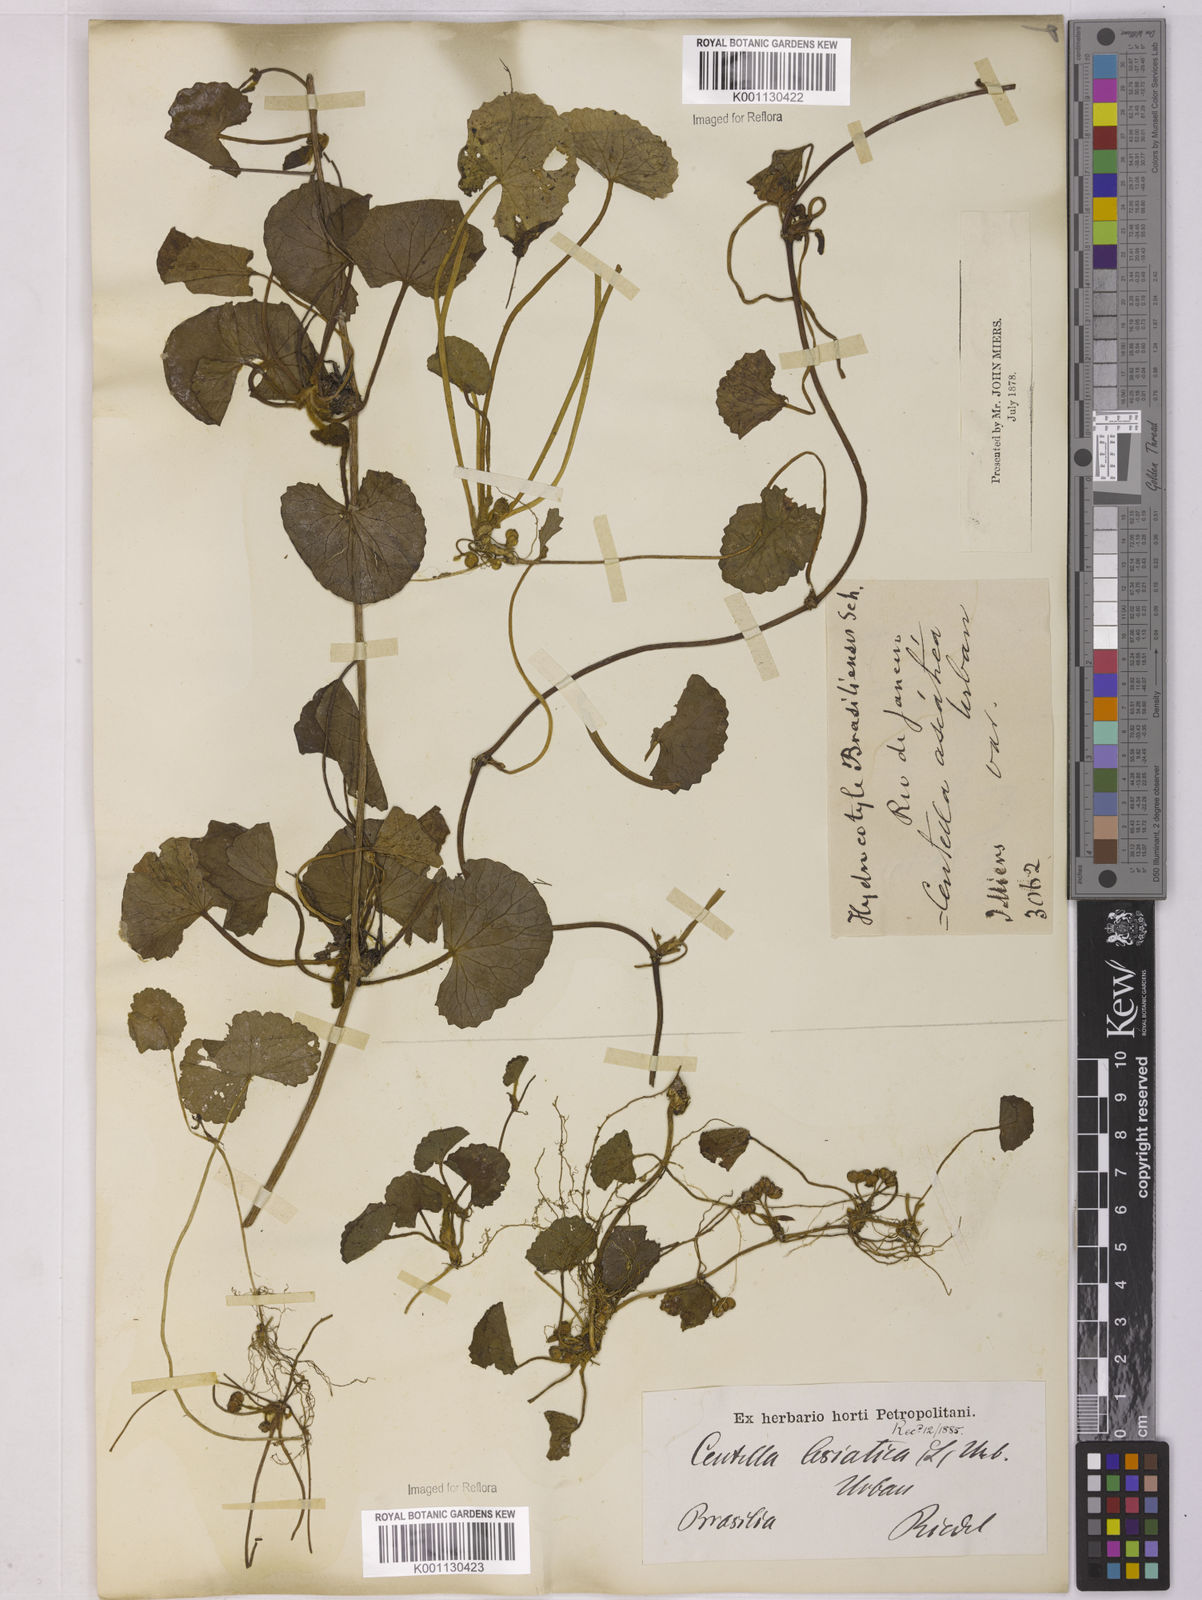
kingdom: Plantae
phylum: Tracheophyta
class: Magnoliopsida
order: Apiales
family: Apiaceae
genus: Centella
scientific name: Centella erecta
